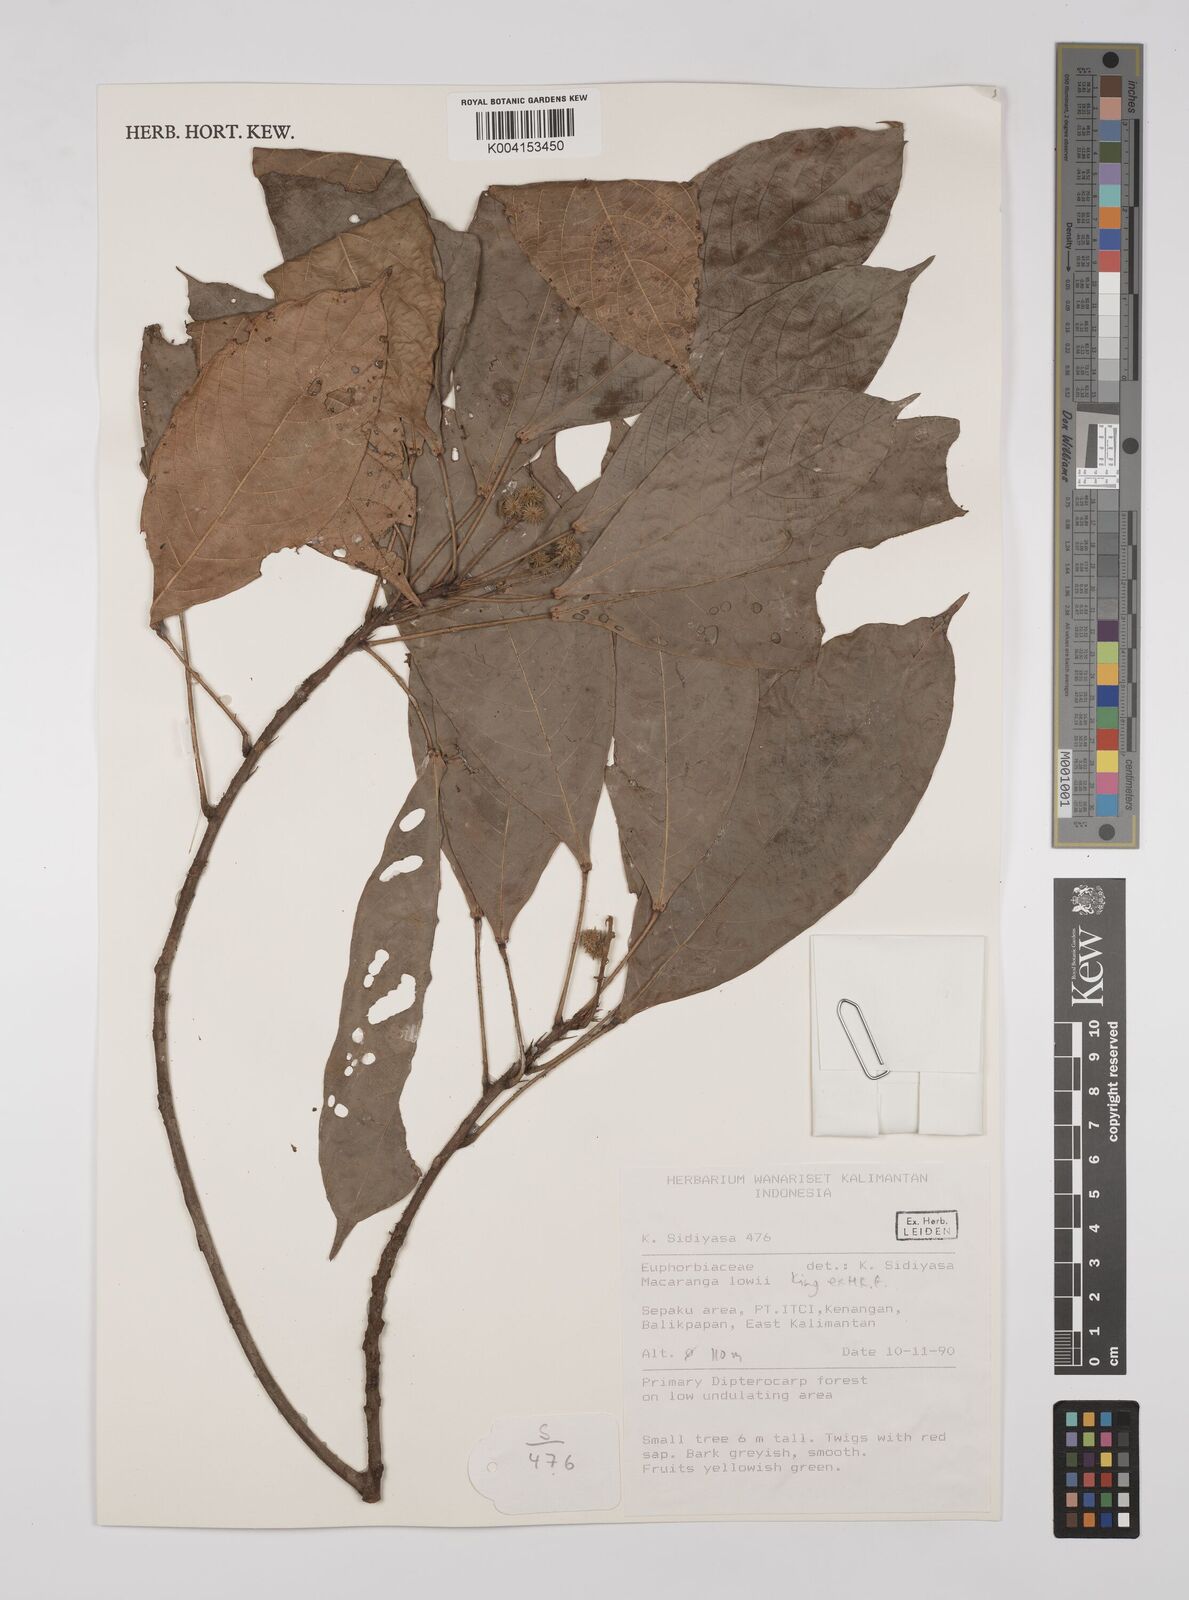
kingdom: Plantae
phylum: Tracheophyta
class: Magnoliopsida
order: Malpighiales
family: Euphorbiaceae
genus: Macaranga
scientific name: Macaranga lowii
